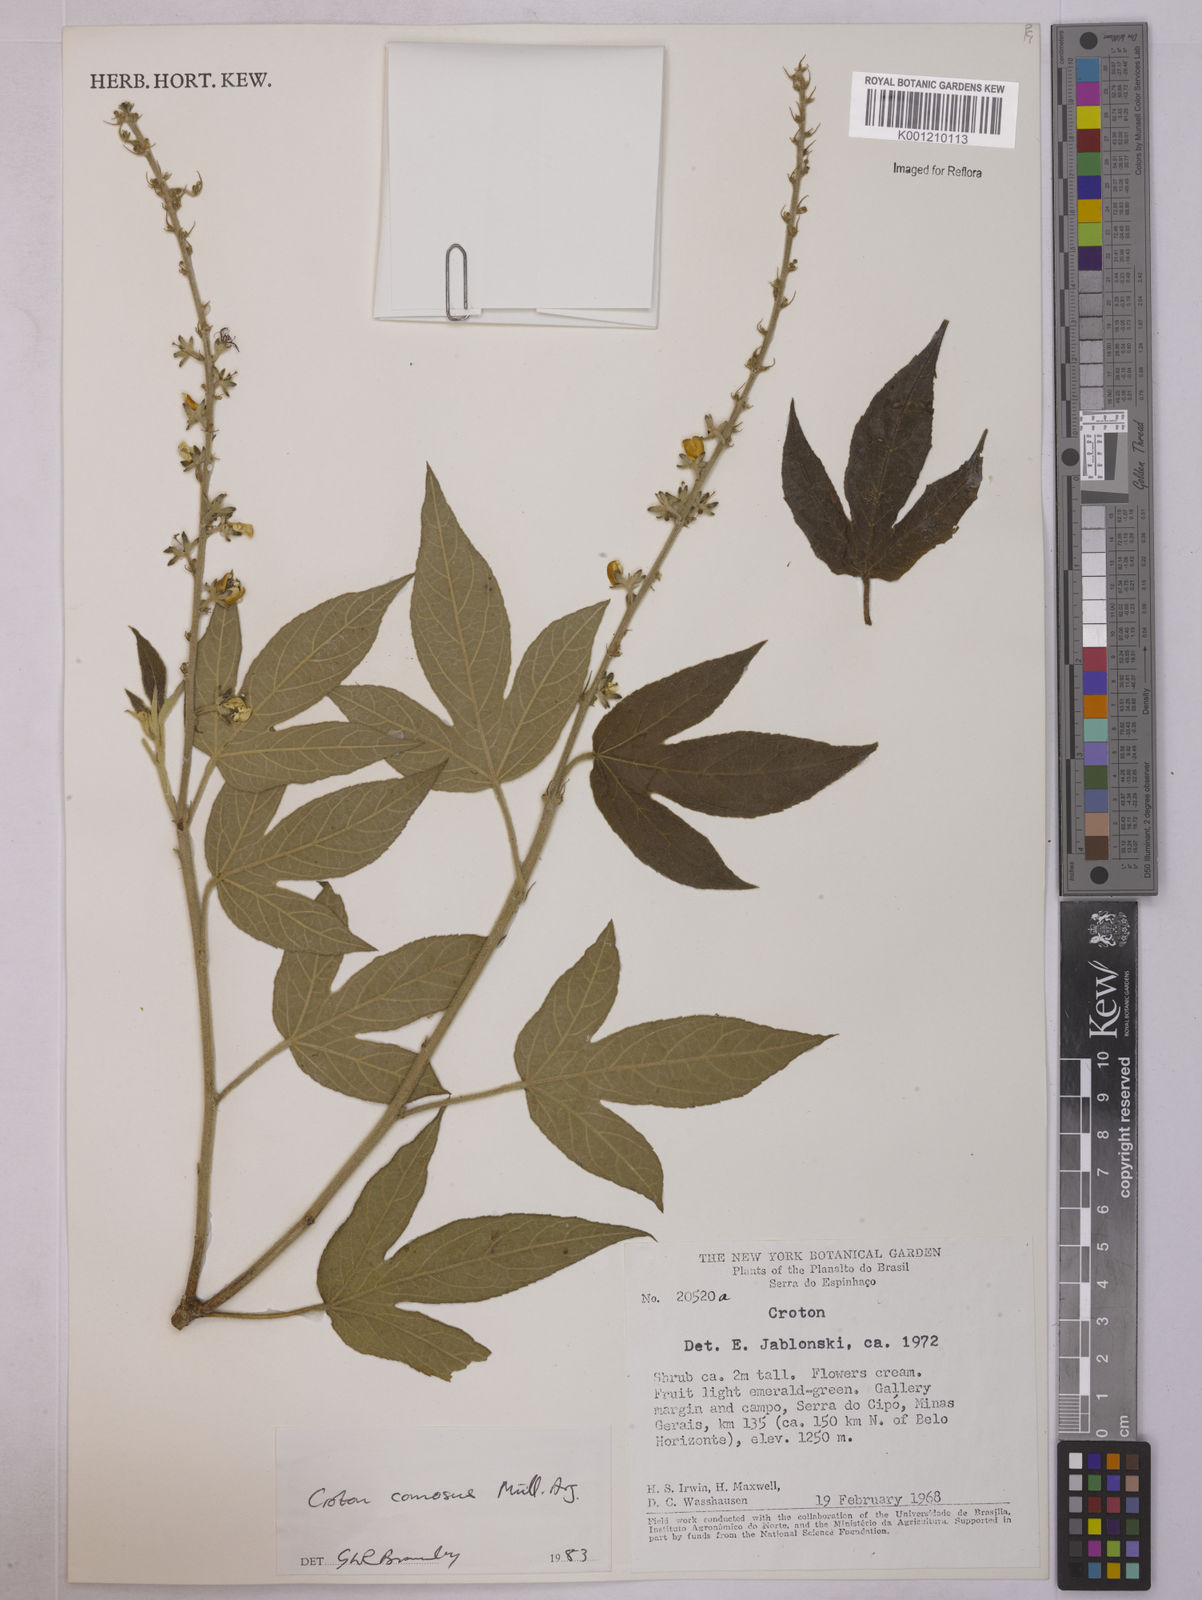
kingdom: Plantae
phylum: Tracheophyta
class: Magnoliopsida
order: Malpighiales
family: Euphorbiaceae
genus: Astraea
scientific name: Astraea
